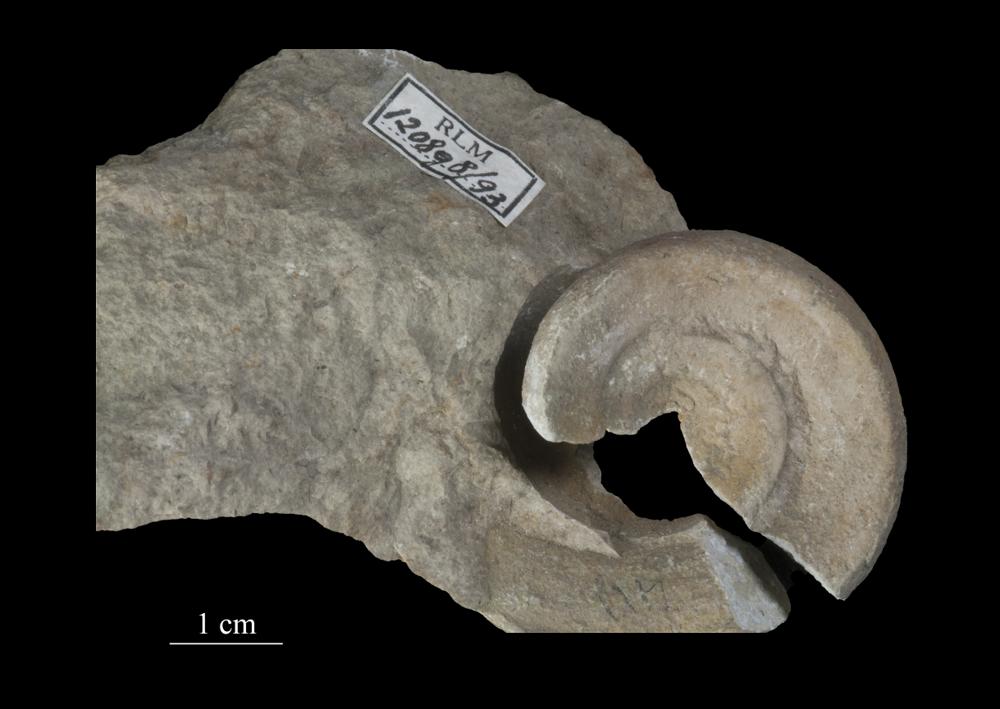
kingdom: Animalia
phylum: Mollusca
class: Gastropoda
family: Lesueurillidae
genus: Mestoronema
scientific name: Mestoronema Euomphalus marginalis
